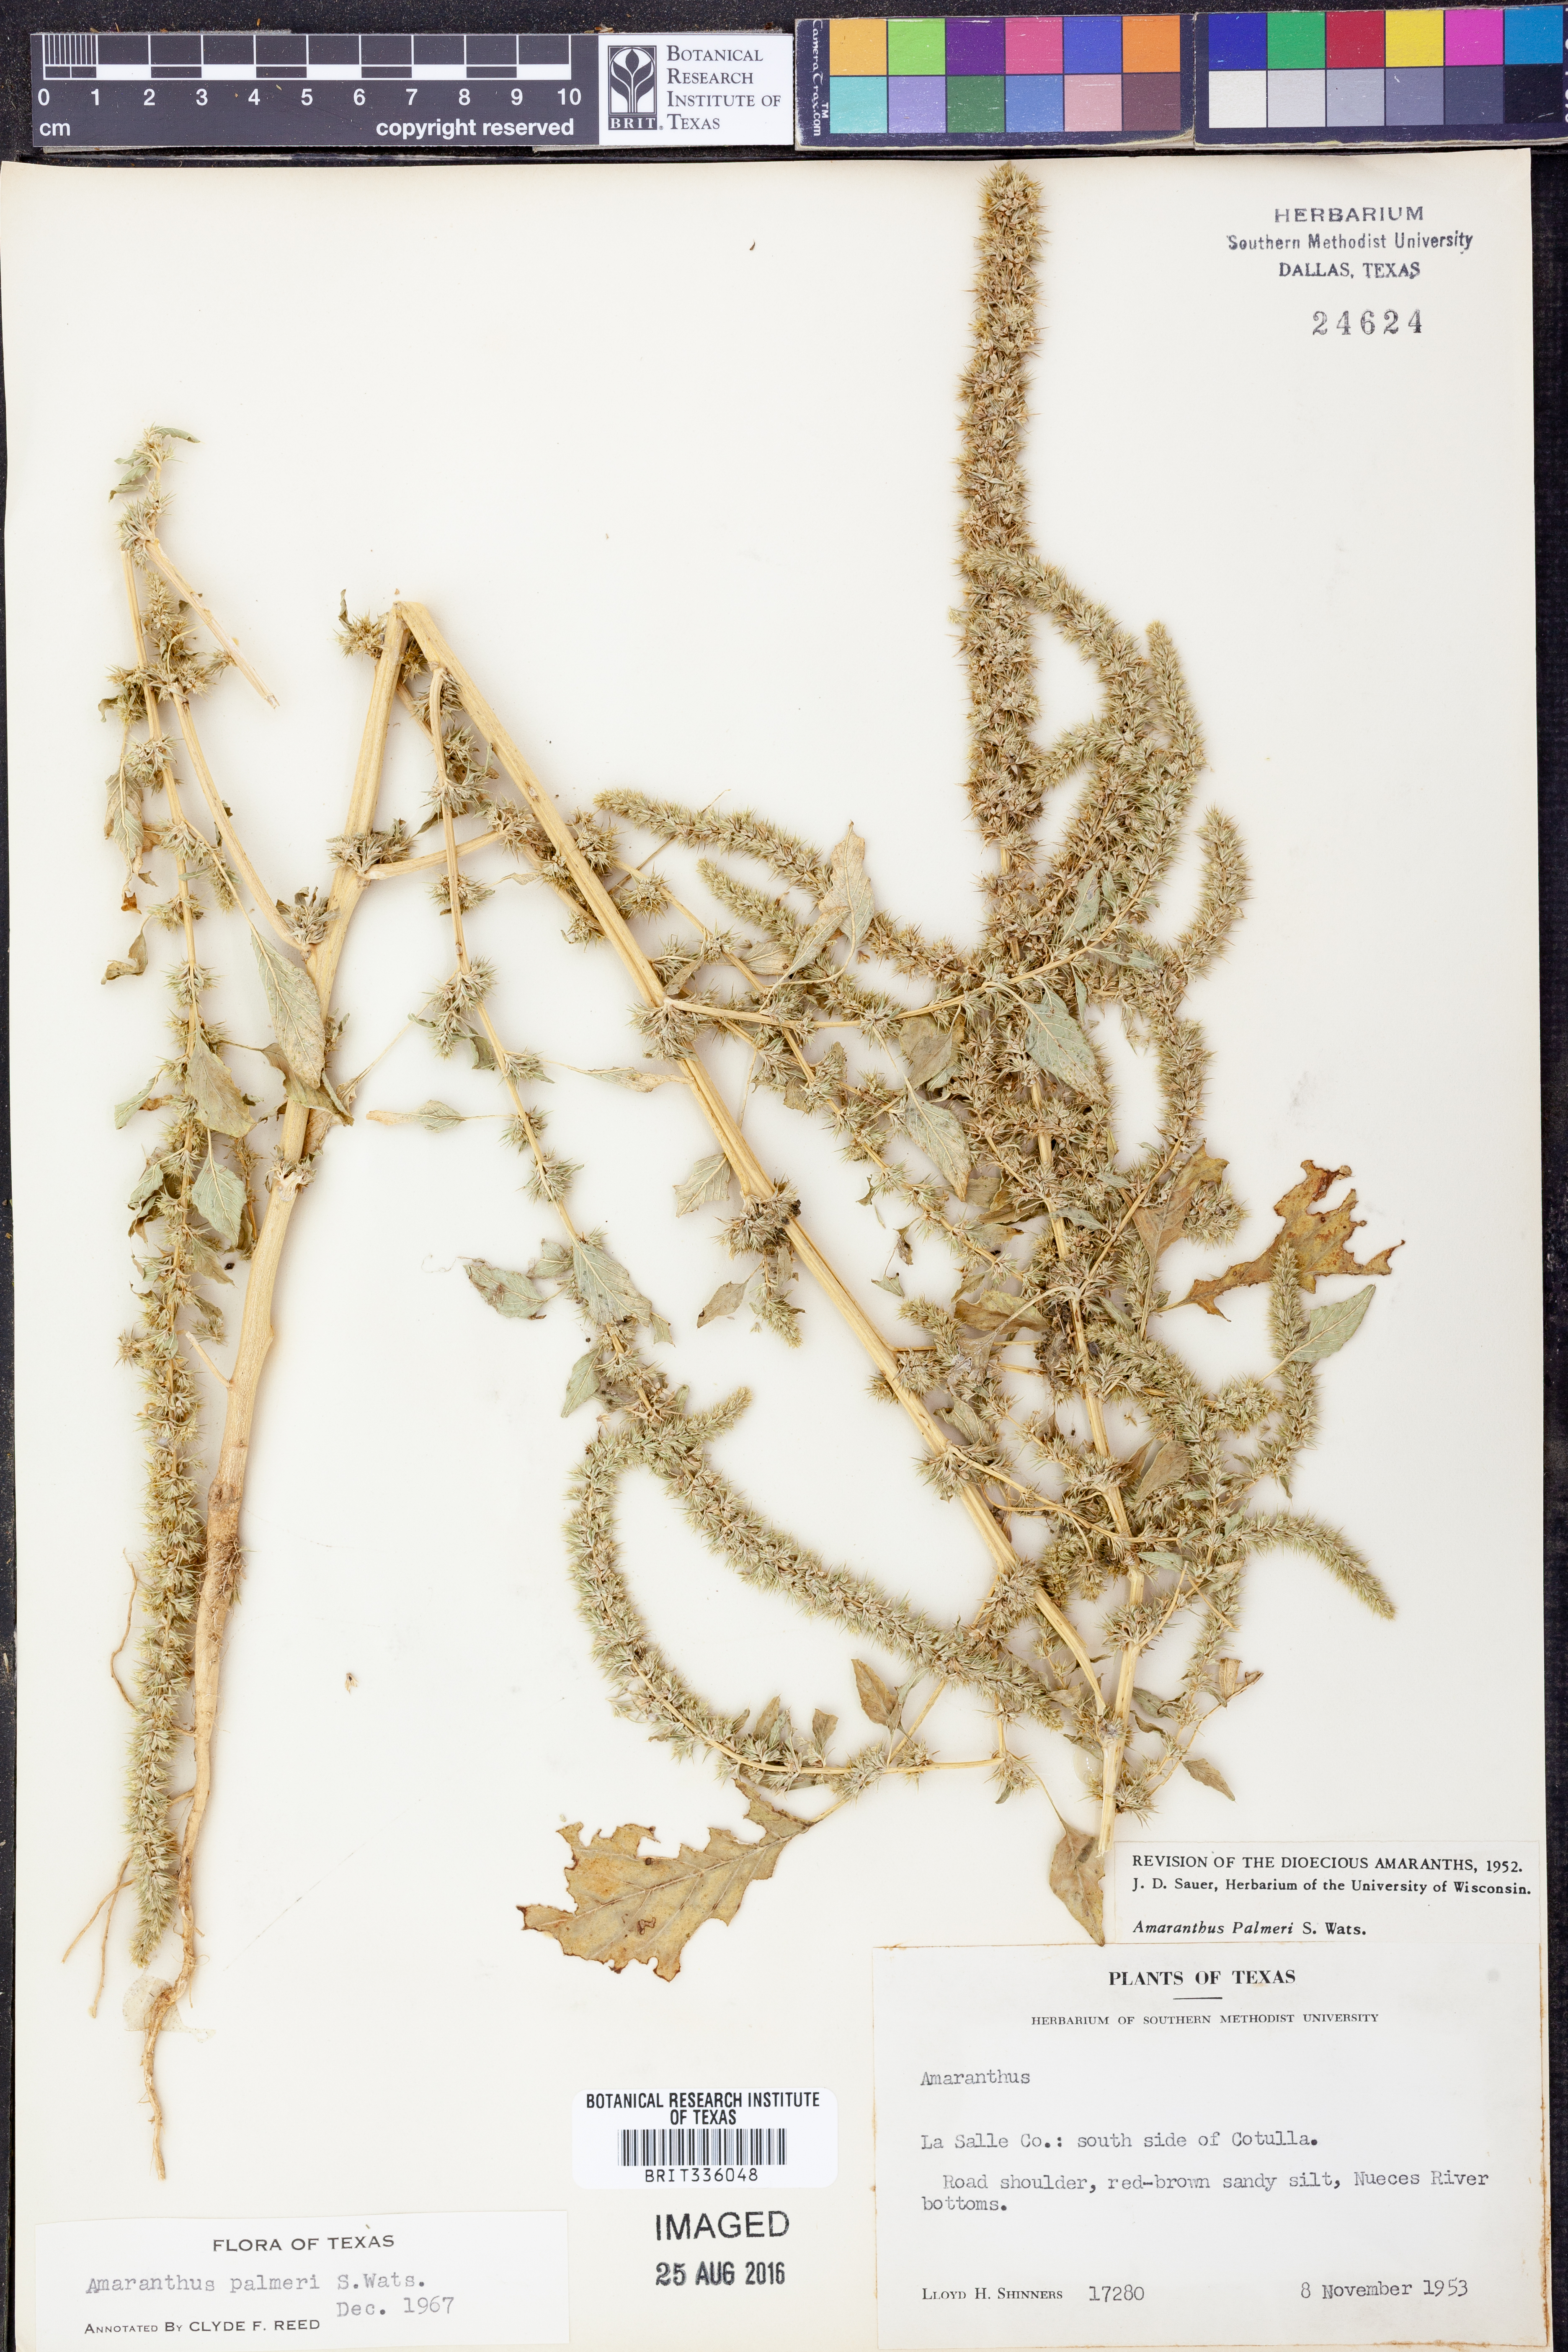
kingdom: Plantae
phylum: Tracheophyta
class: Magnoliopsida
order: Caryophyllales
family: Amaranthaceae
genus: Amaranthus
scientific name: Amaranthus palmeri
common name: Dioecious amaranth
